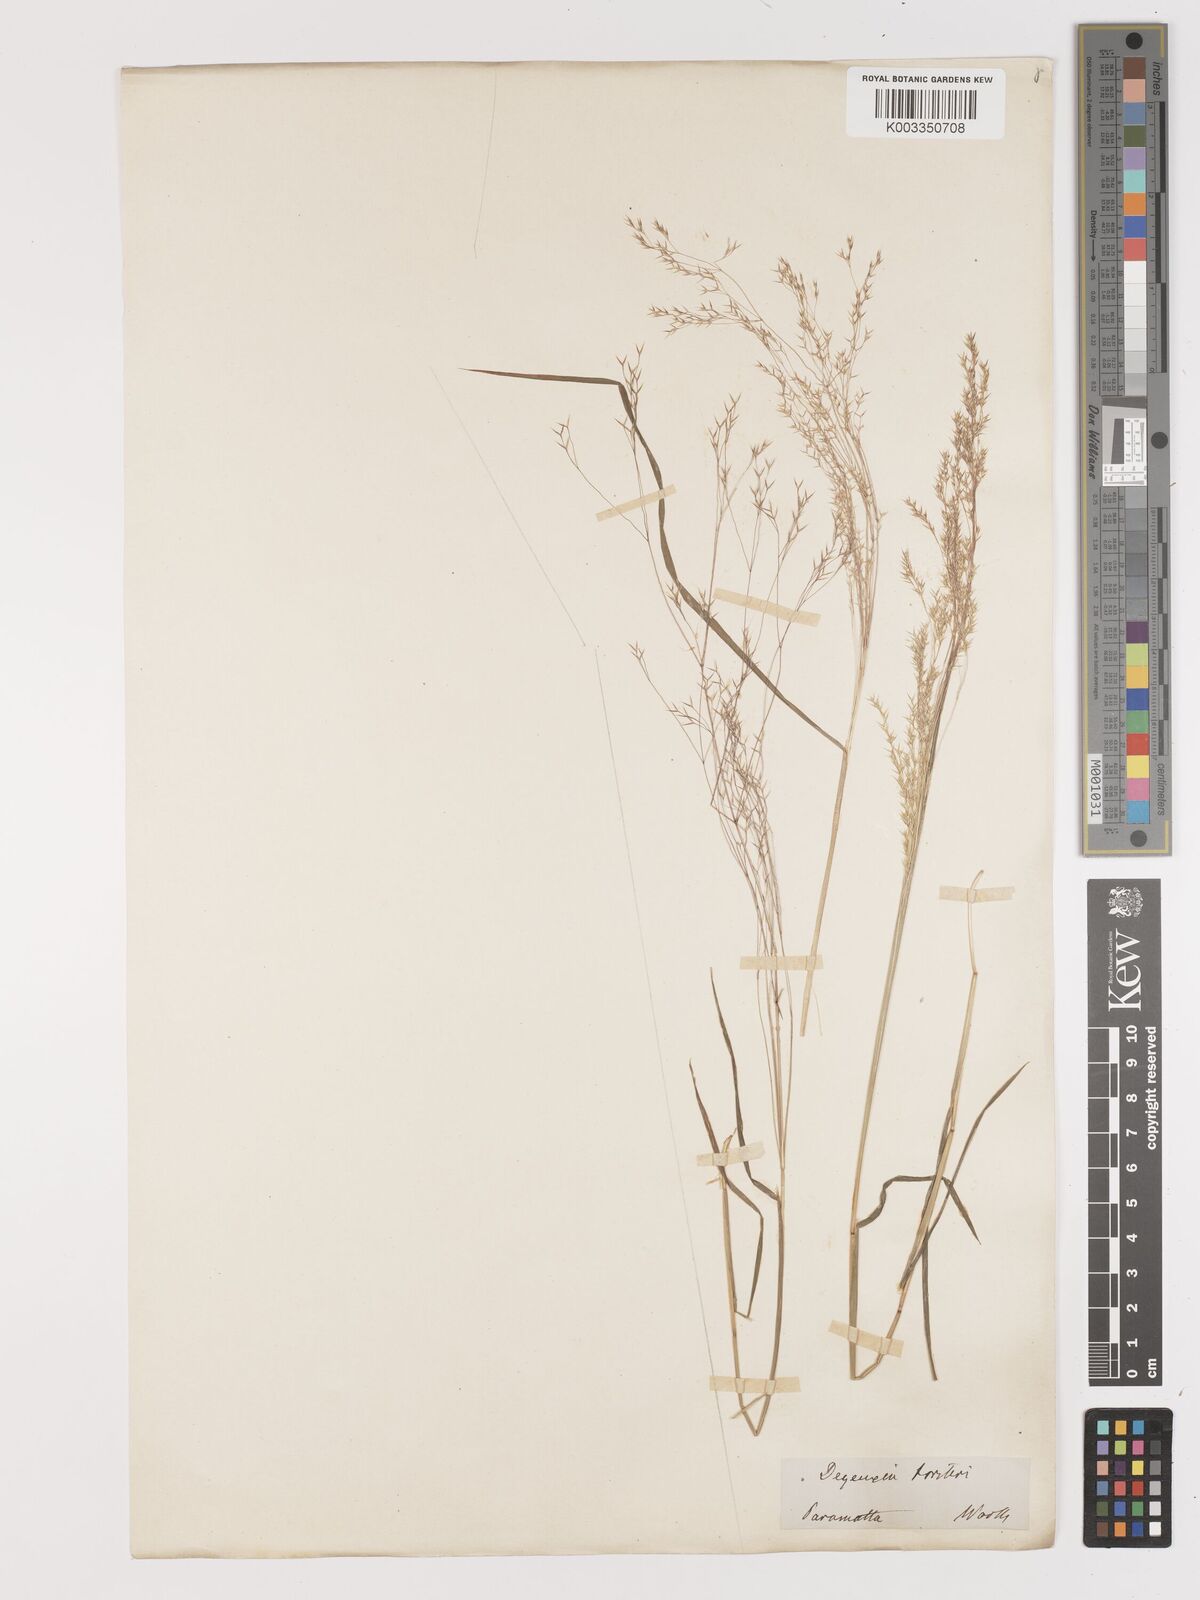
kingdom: Plantae
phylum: Tracheophyta
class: Liliopsida
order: Poales
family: Poaceae
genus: Lachnagrostis
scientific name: Lachnagrostis aemula
